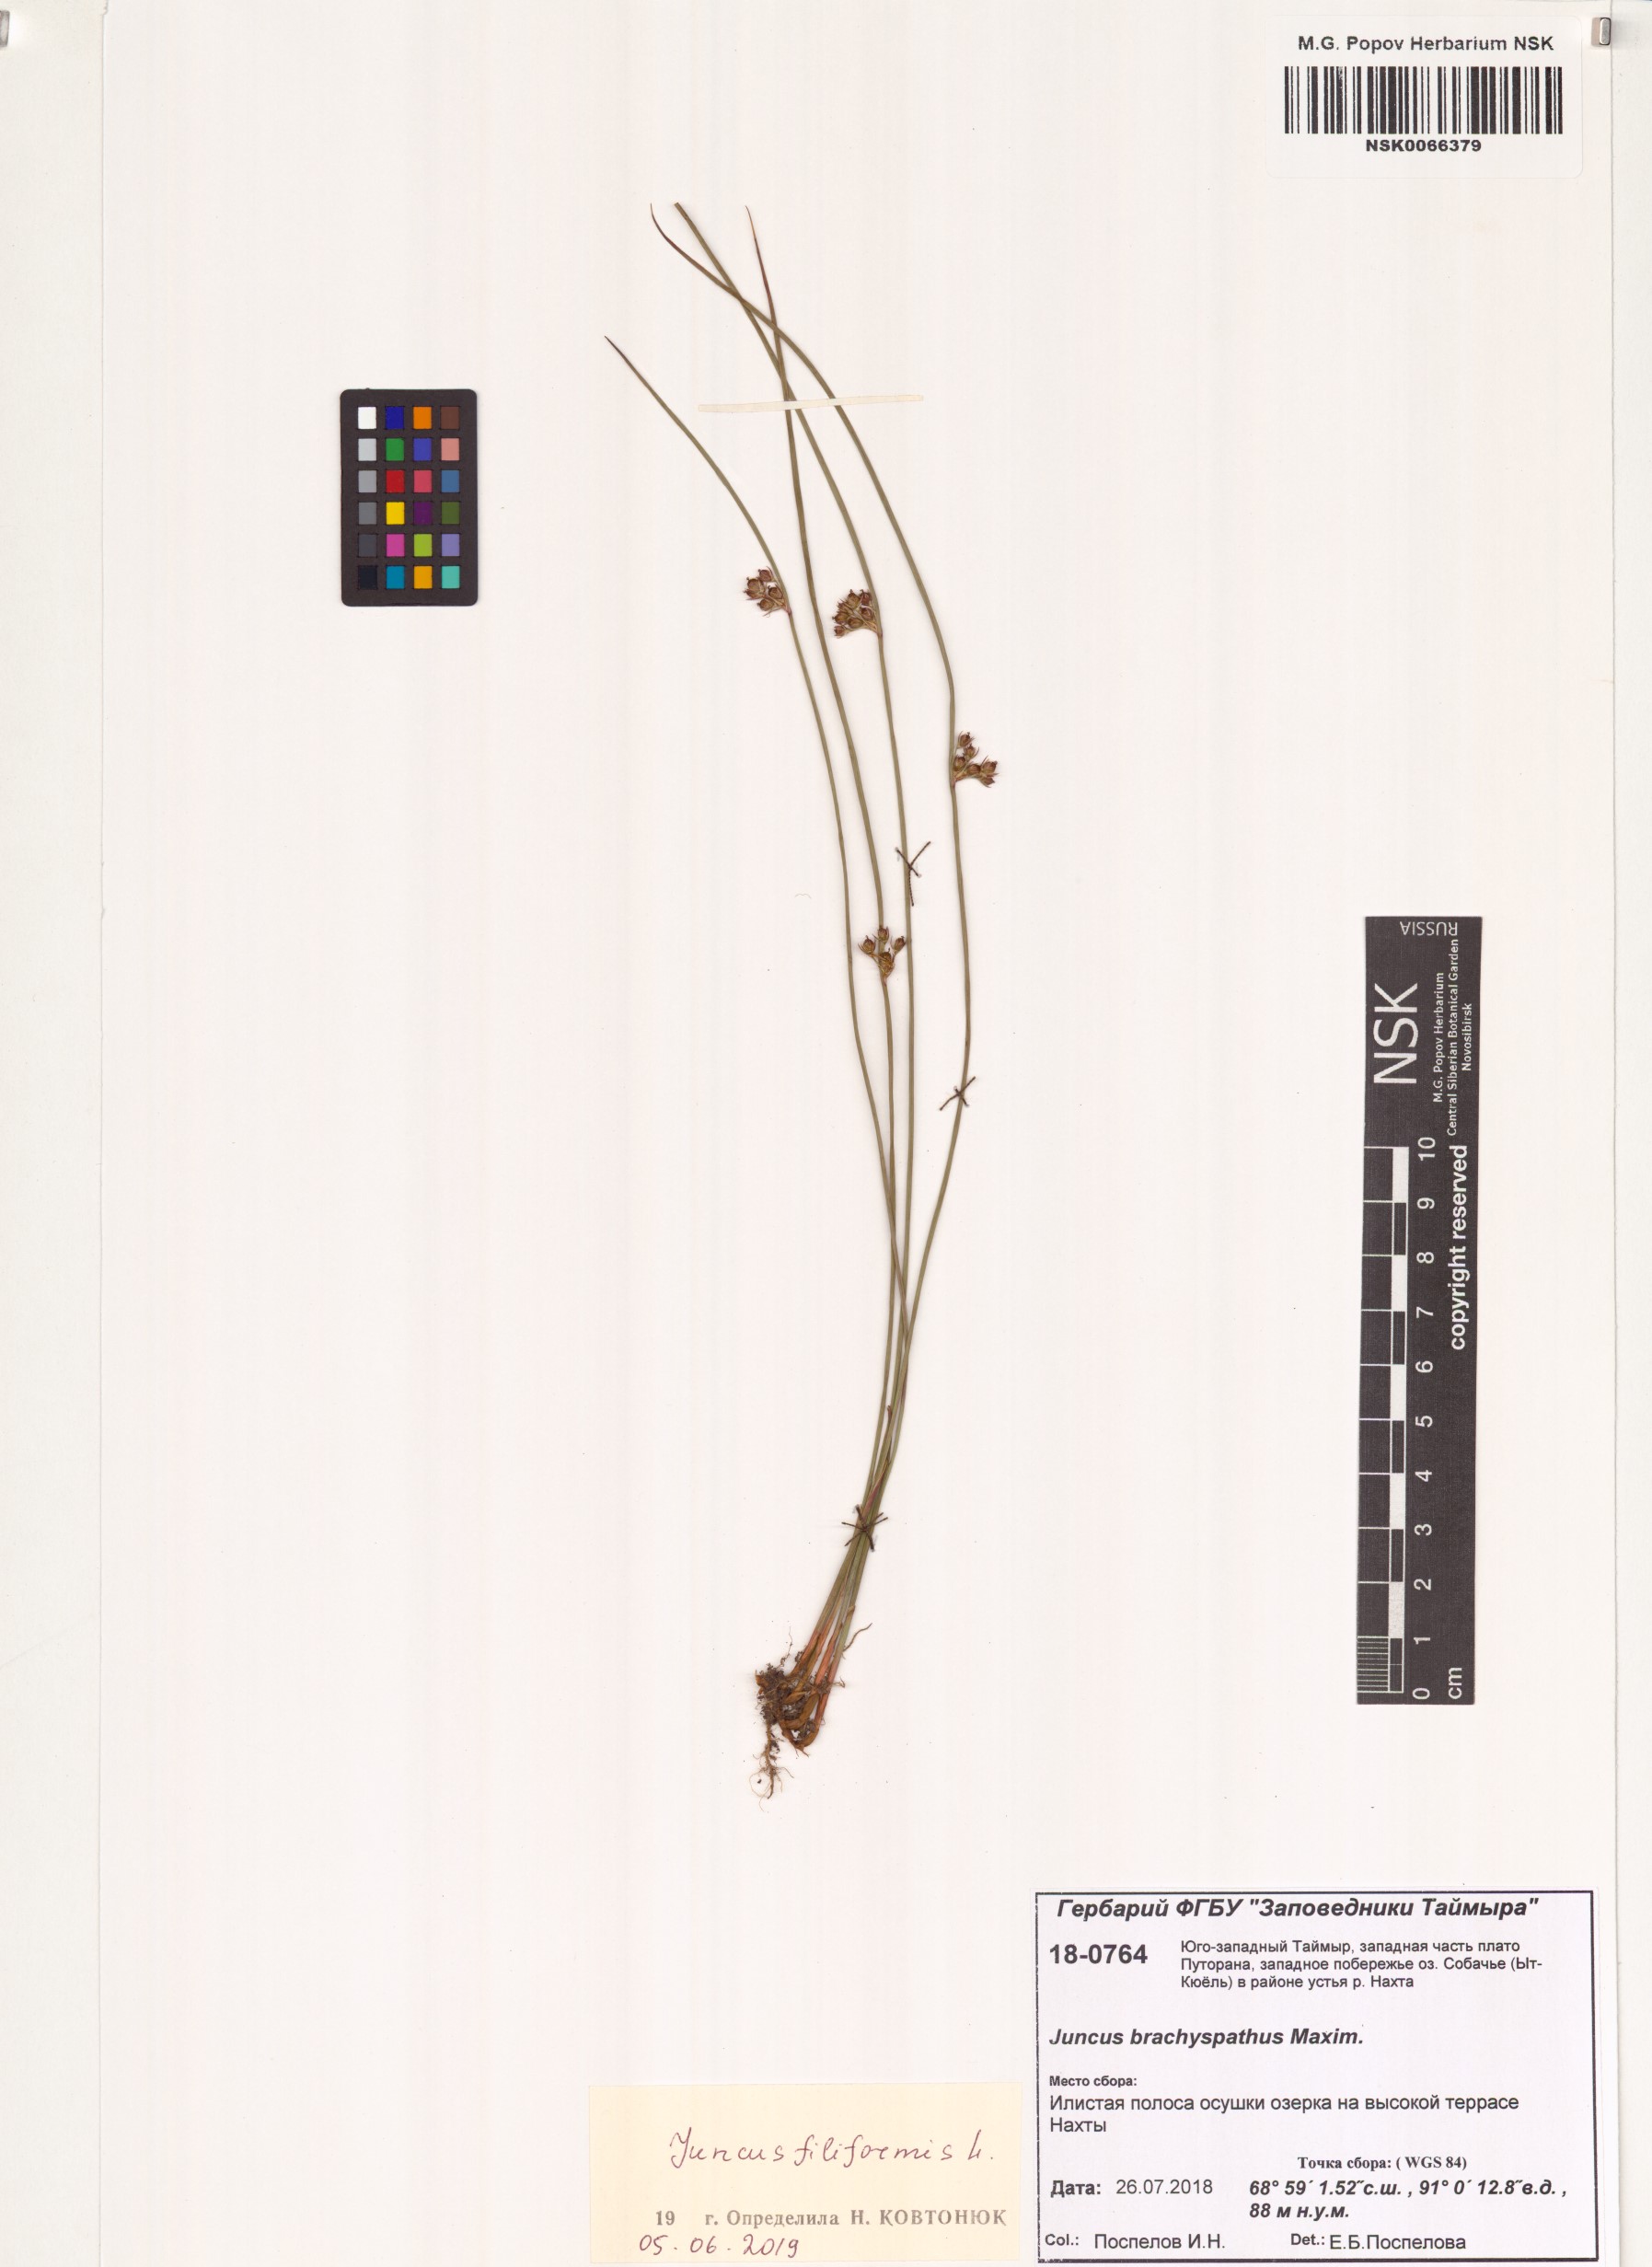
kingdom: Plantae
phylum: Tracheophyta
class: Liliopsida
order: Poales
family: Juncaceae
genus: Juncus
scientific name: Juncus filiformis
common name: Thread rush
